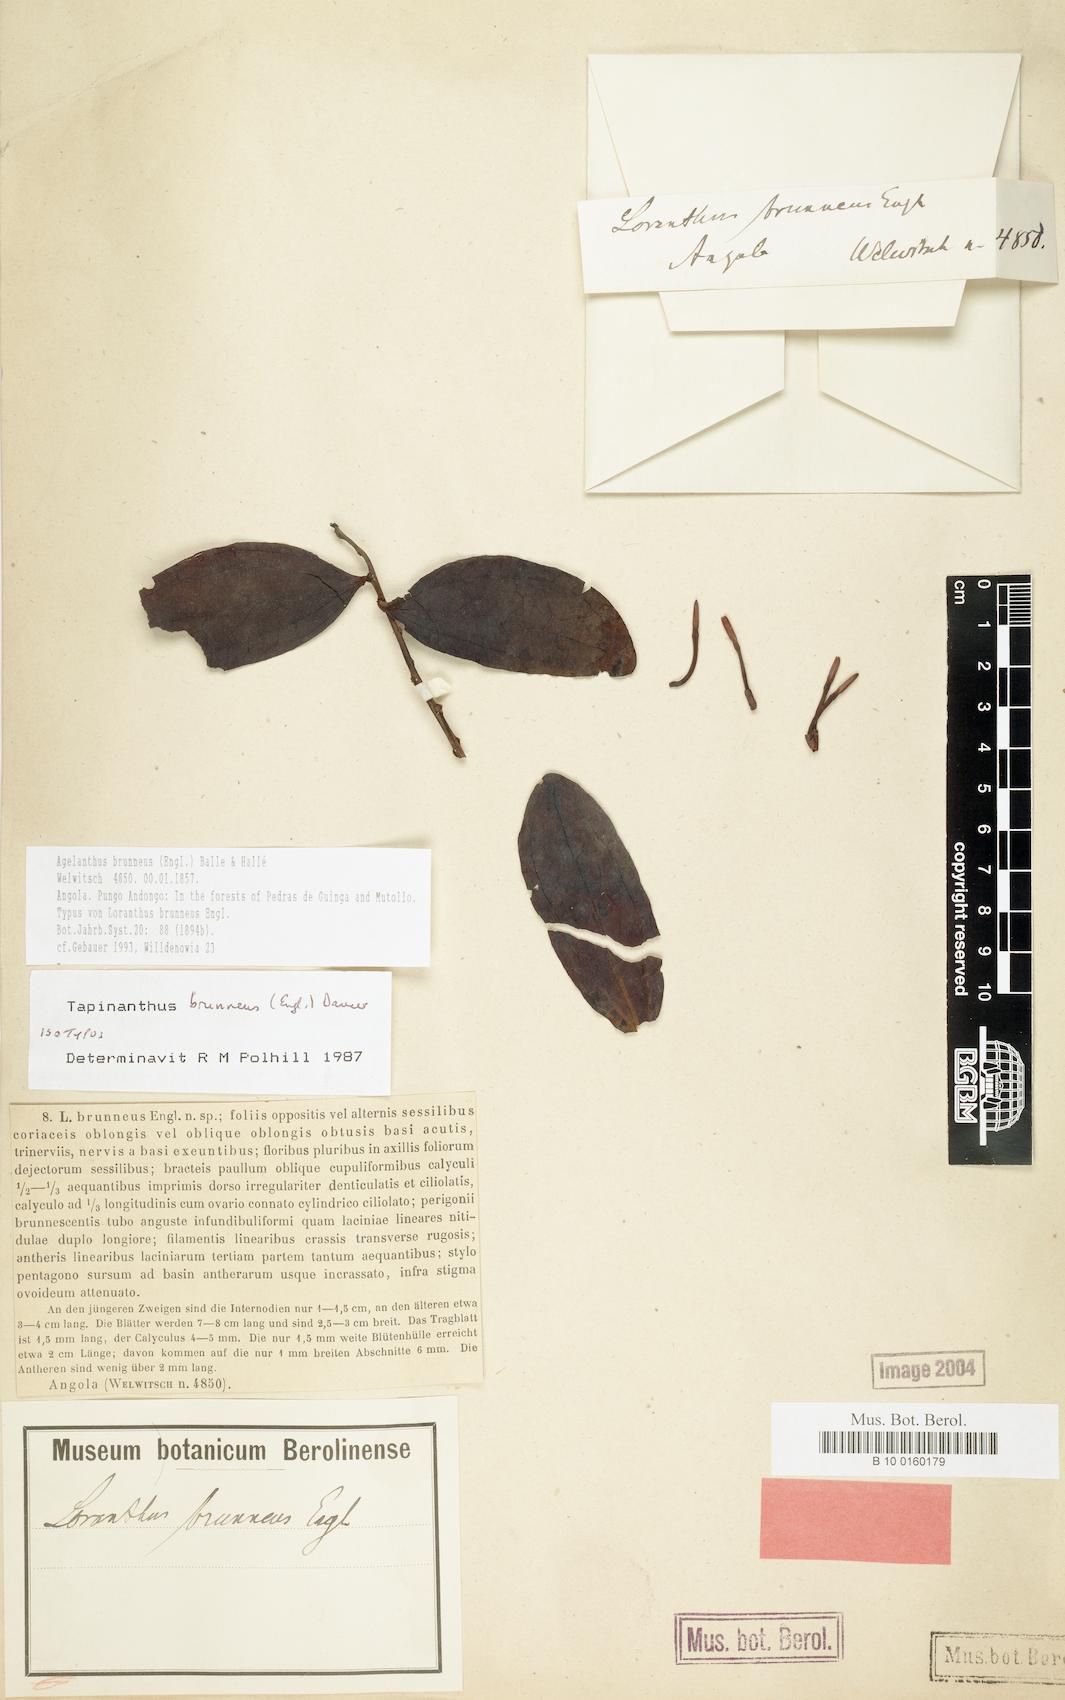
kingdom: Plantae
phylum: Tracheophyta
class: Magnoliopsida
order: Santalales
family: Loranthaceae
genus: Agelanthus
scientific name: Agelanthus brunneus
